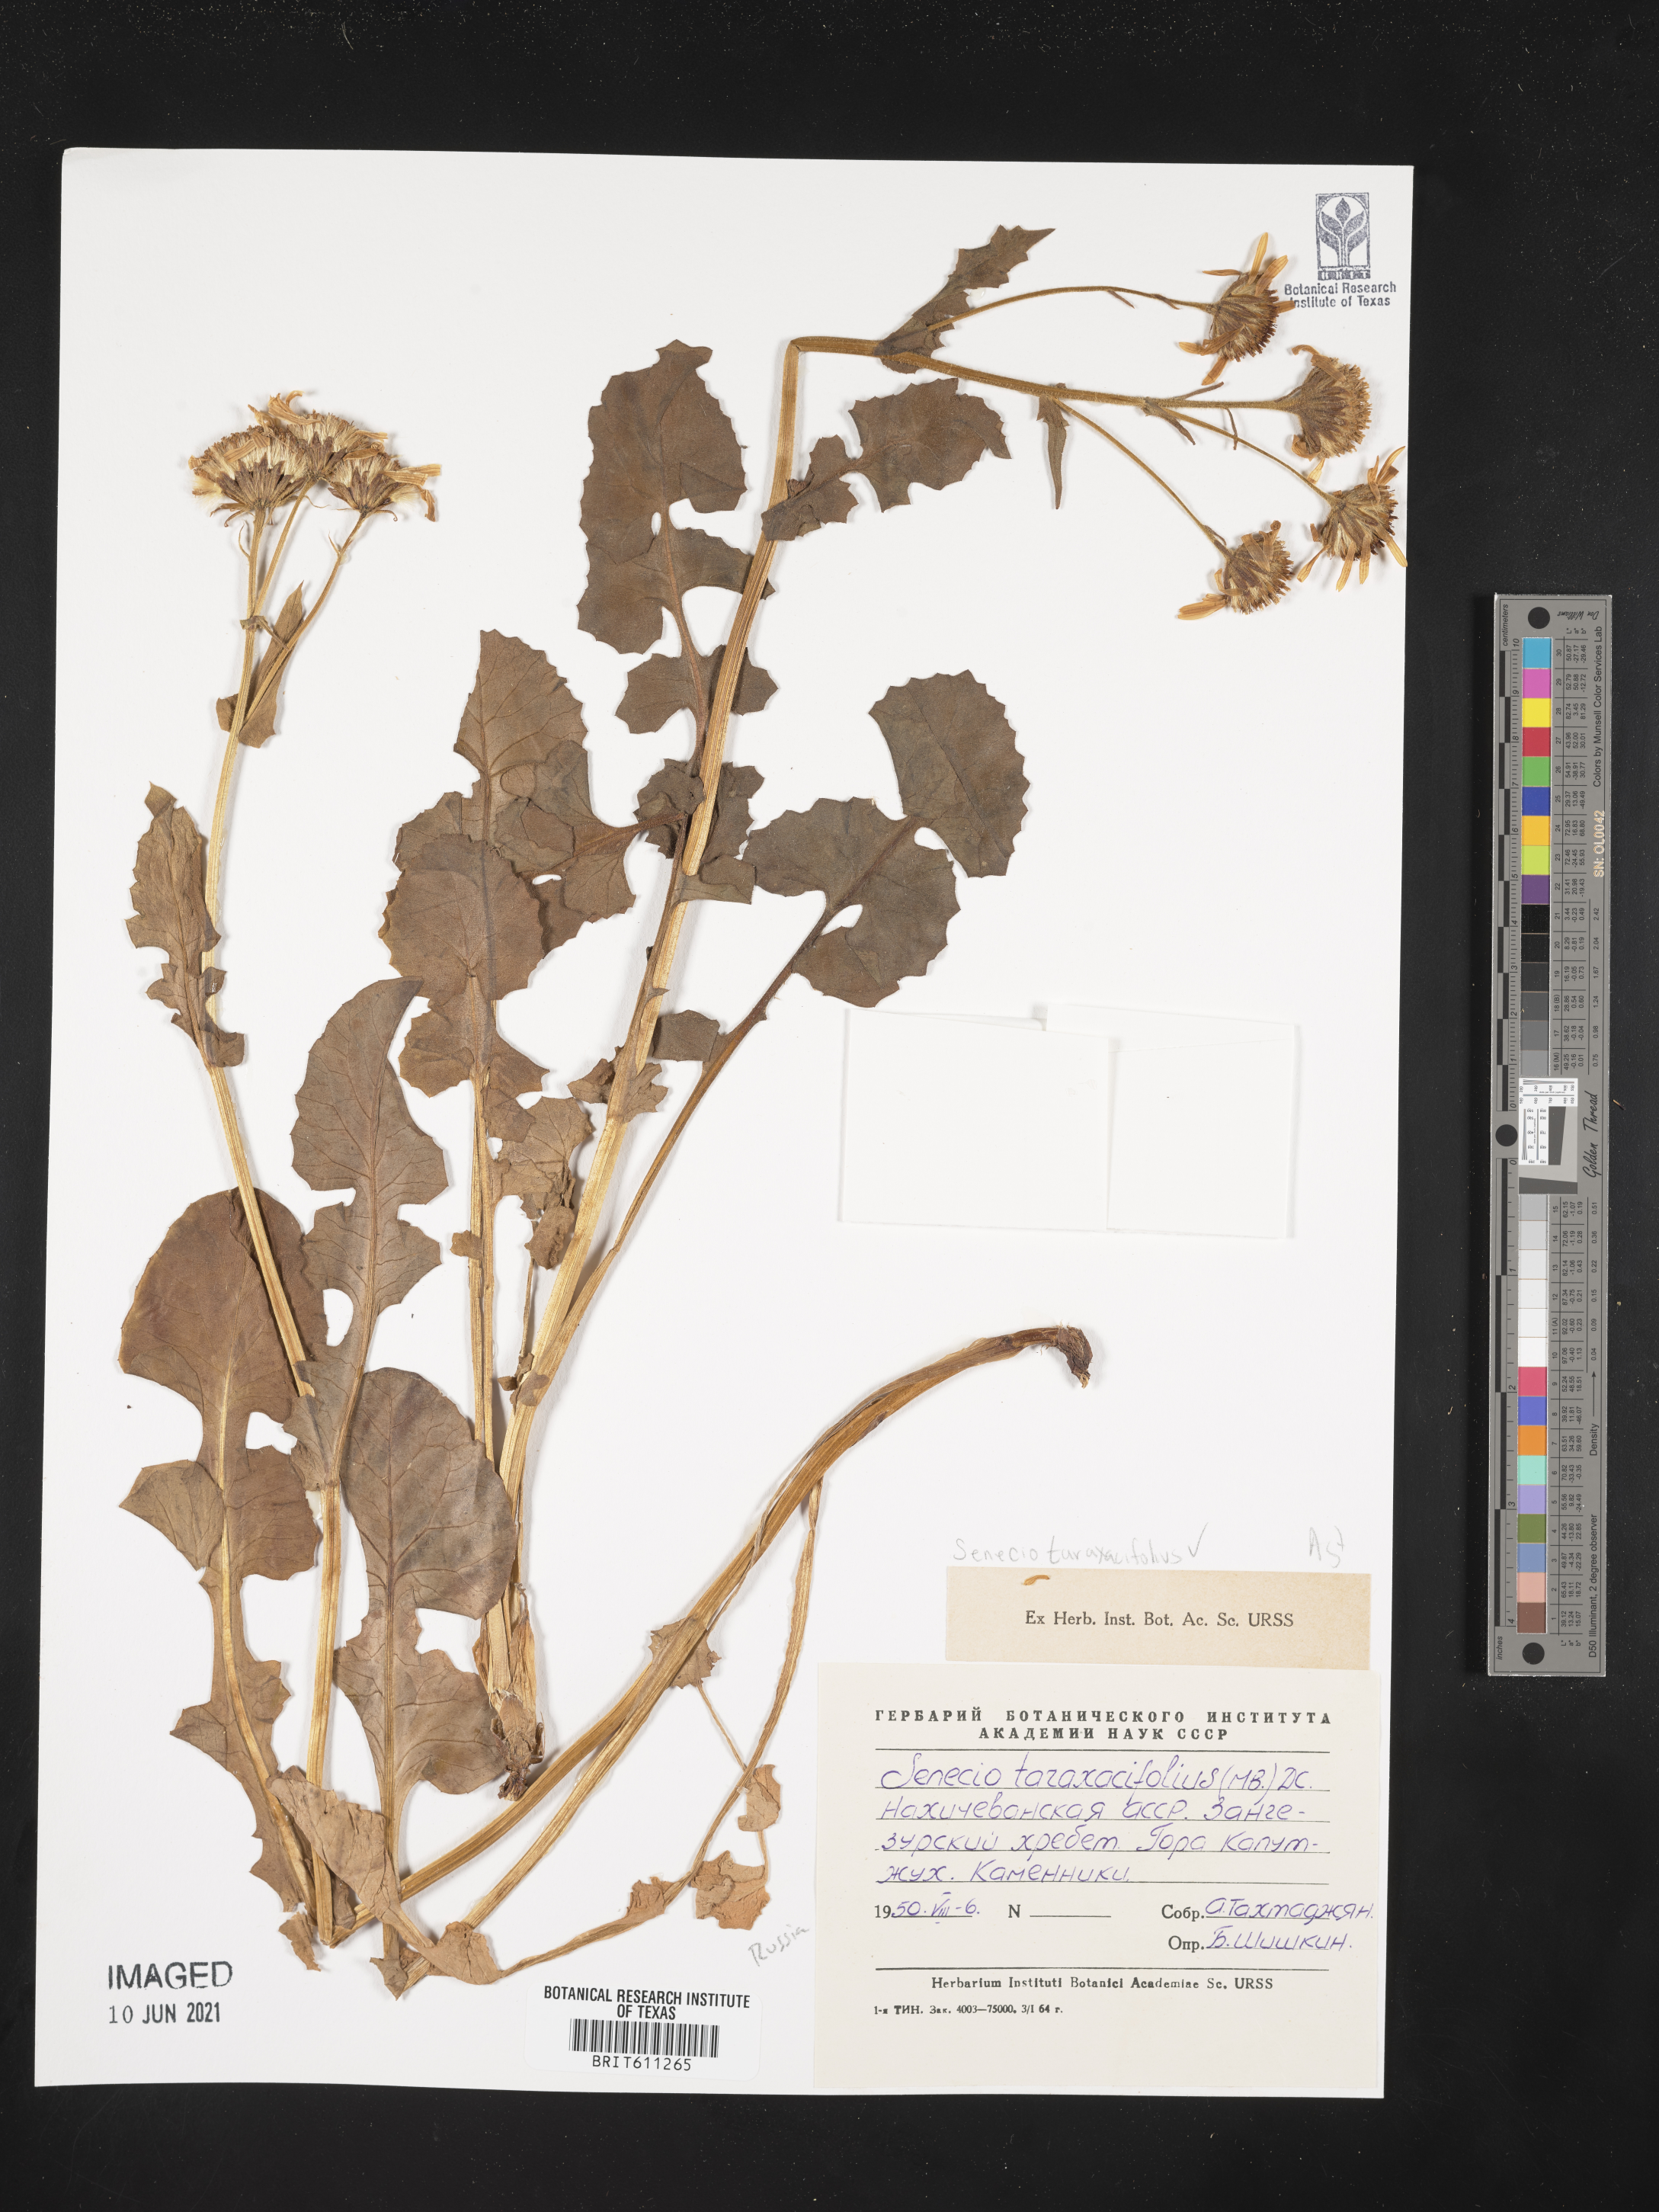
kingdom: Plantae
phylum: Tracheophyta
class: Magnoliopsida
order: Asterales
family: Asteraceae
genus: Turanecio
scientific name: Turanecio taraxacifolius
